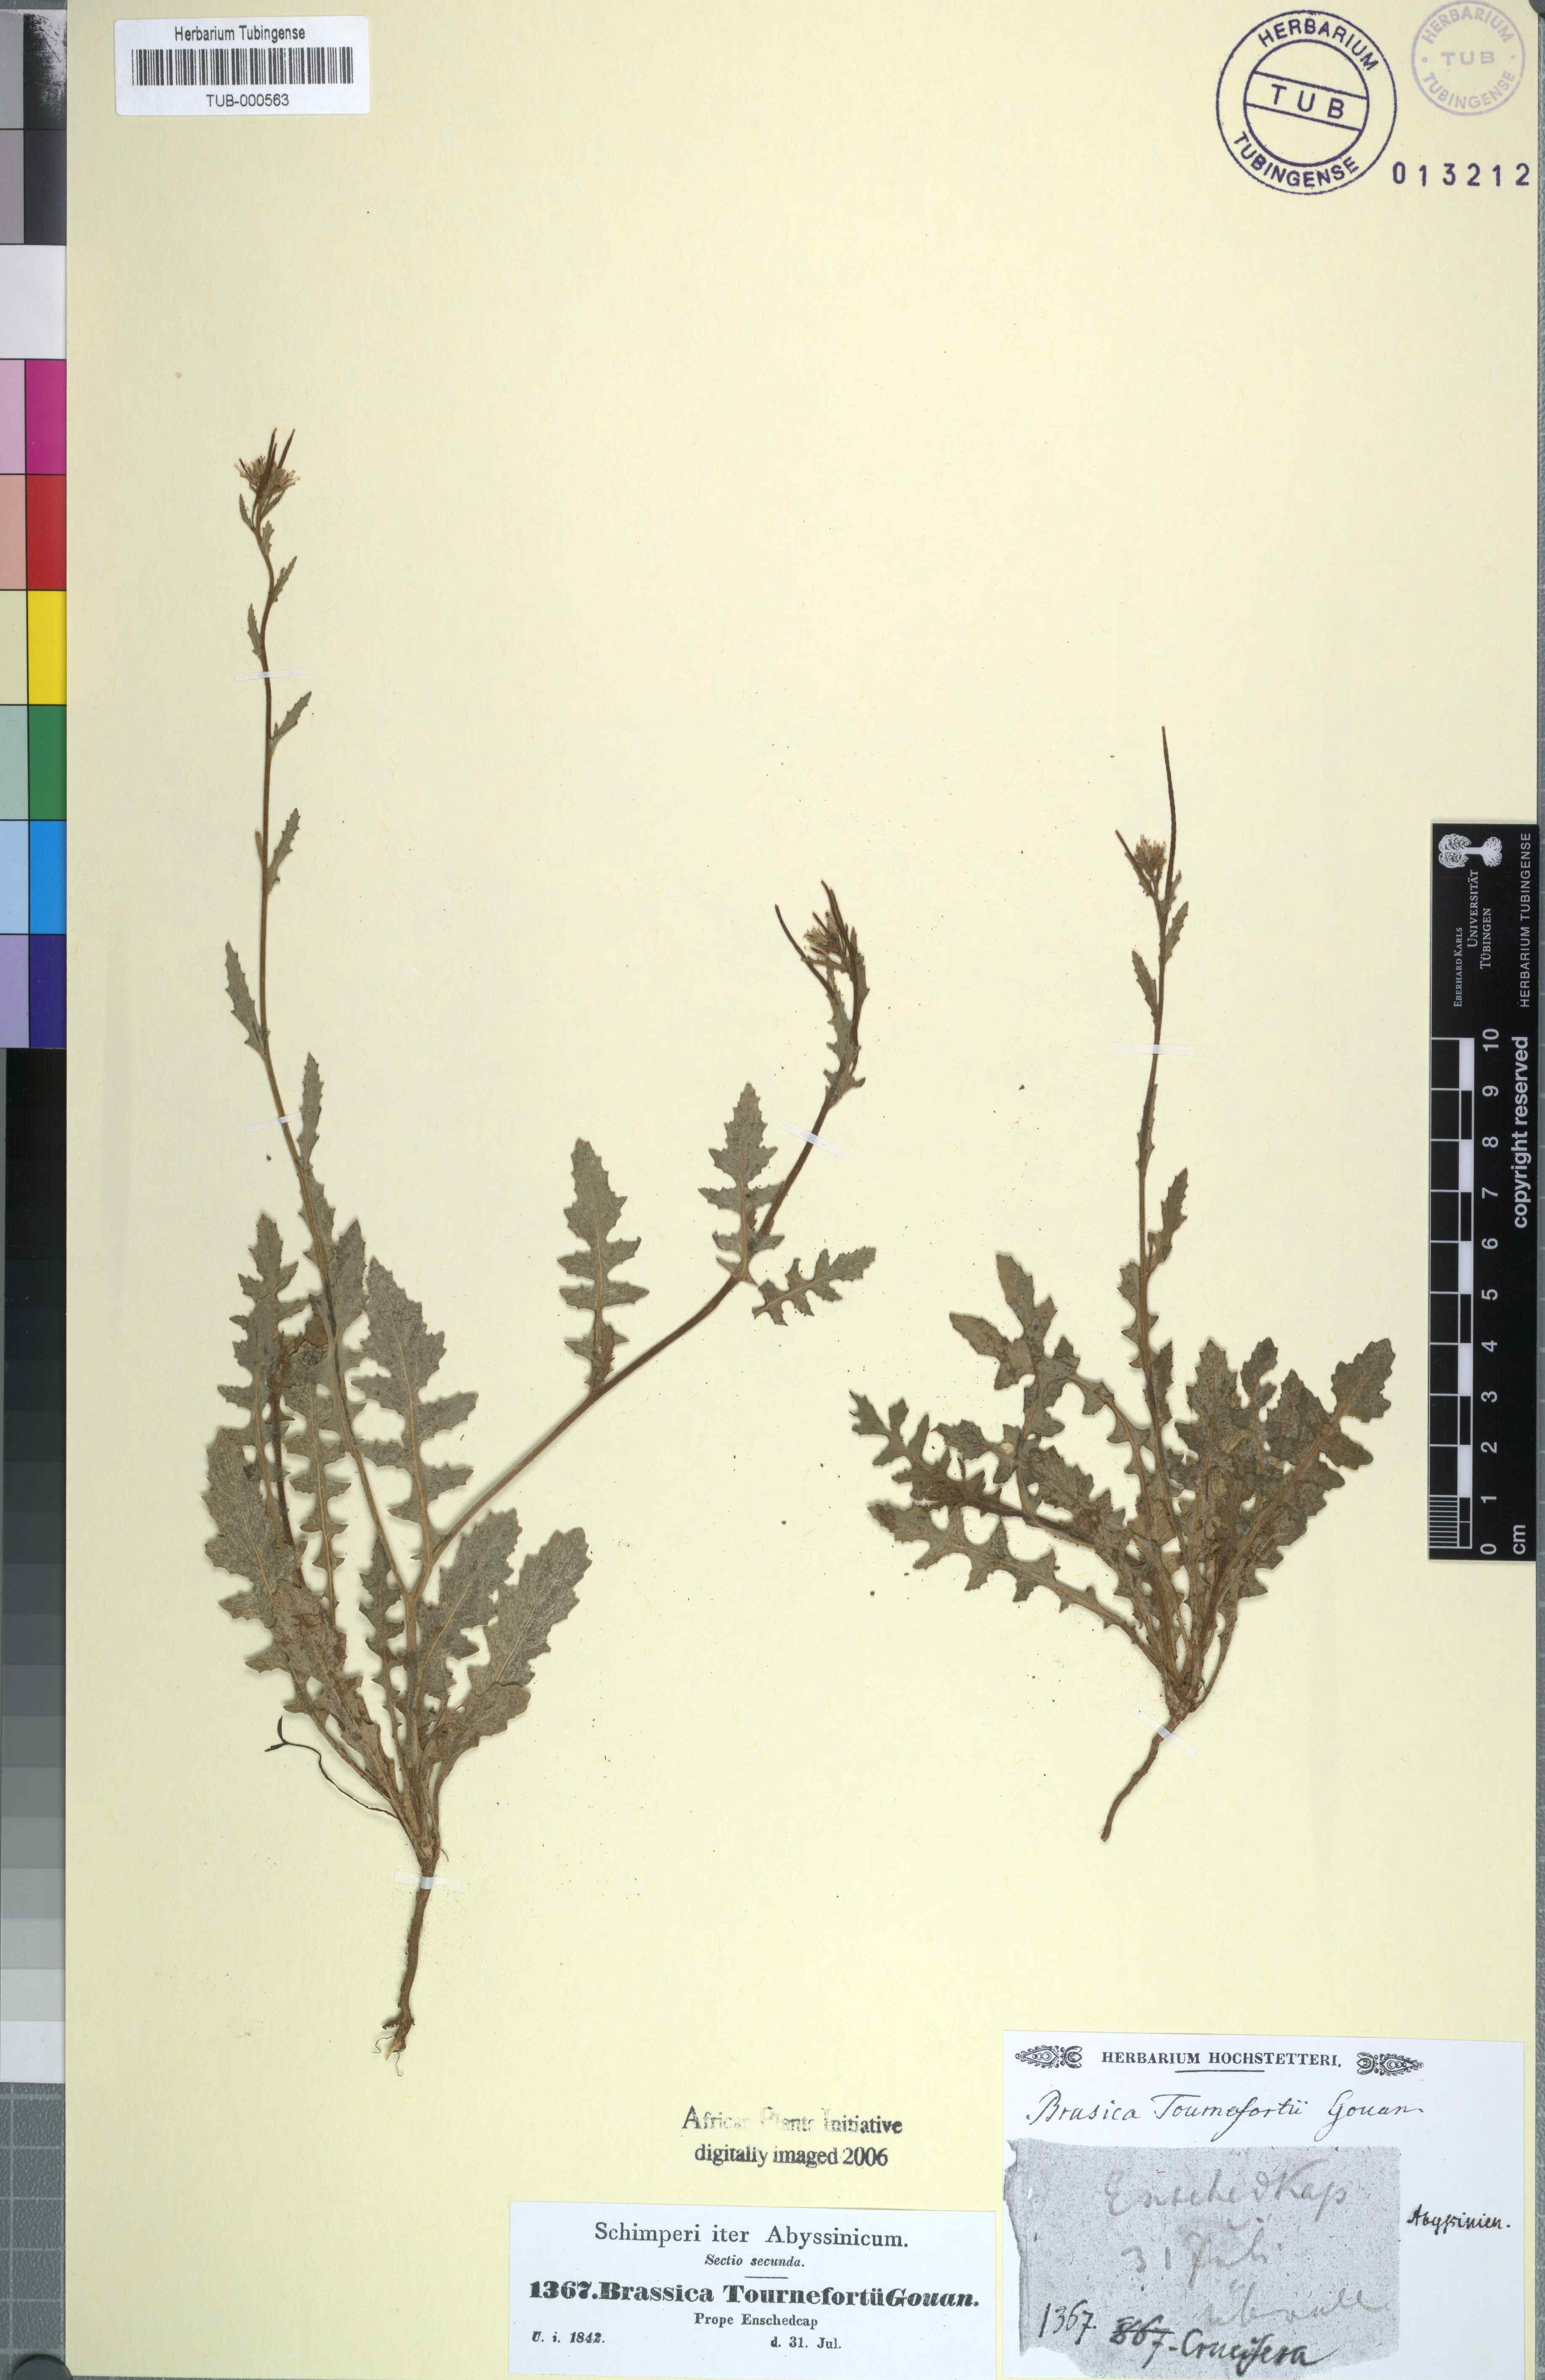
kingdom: Plantae
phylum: Tracheophyta
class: Magnoliopsida
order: Brassicales
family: Brassicaceae
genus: Brassica
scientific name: Brassica tournefortii
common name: Pale cabbage
